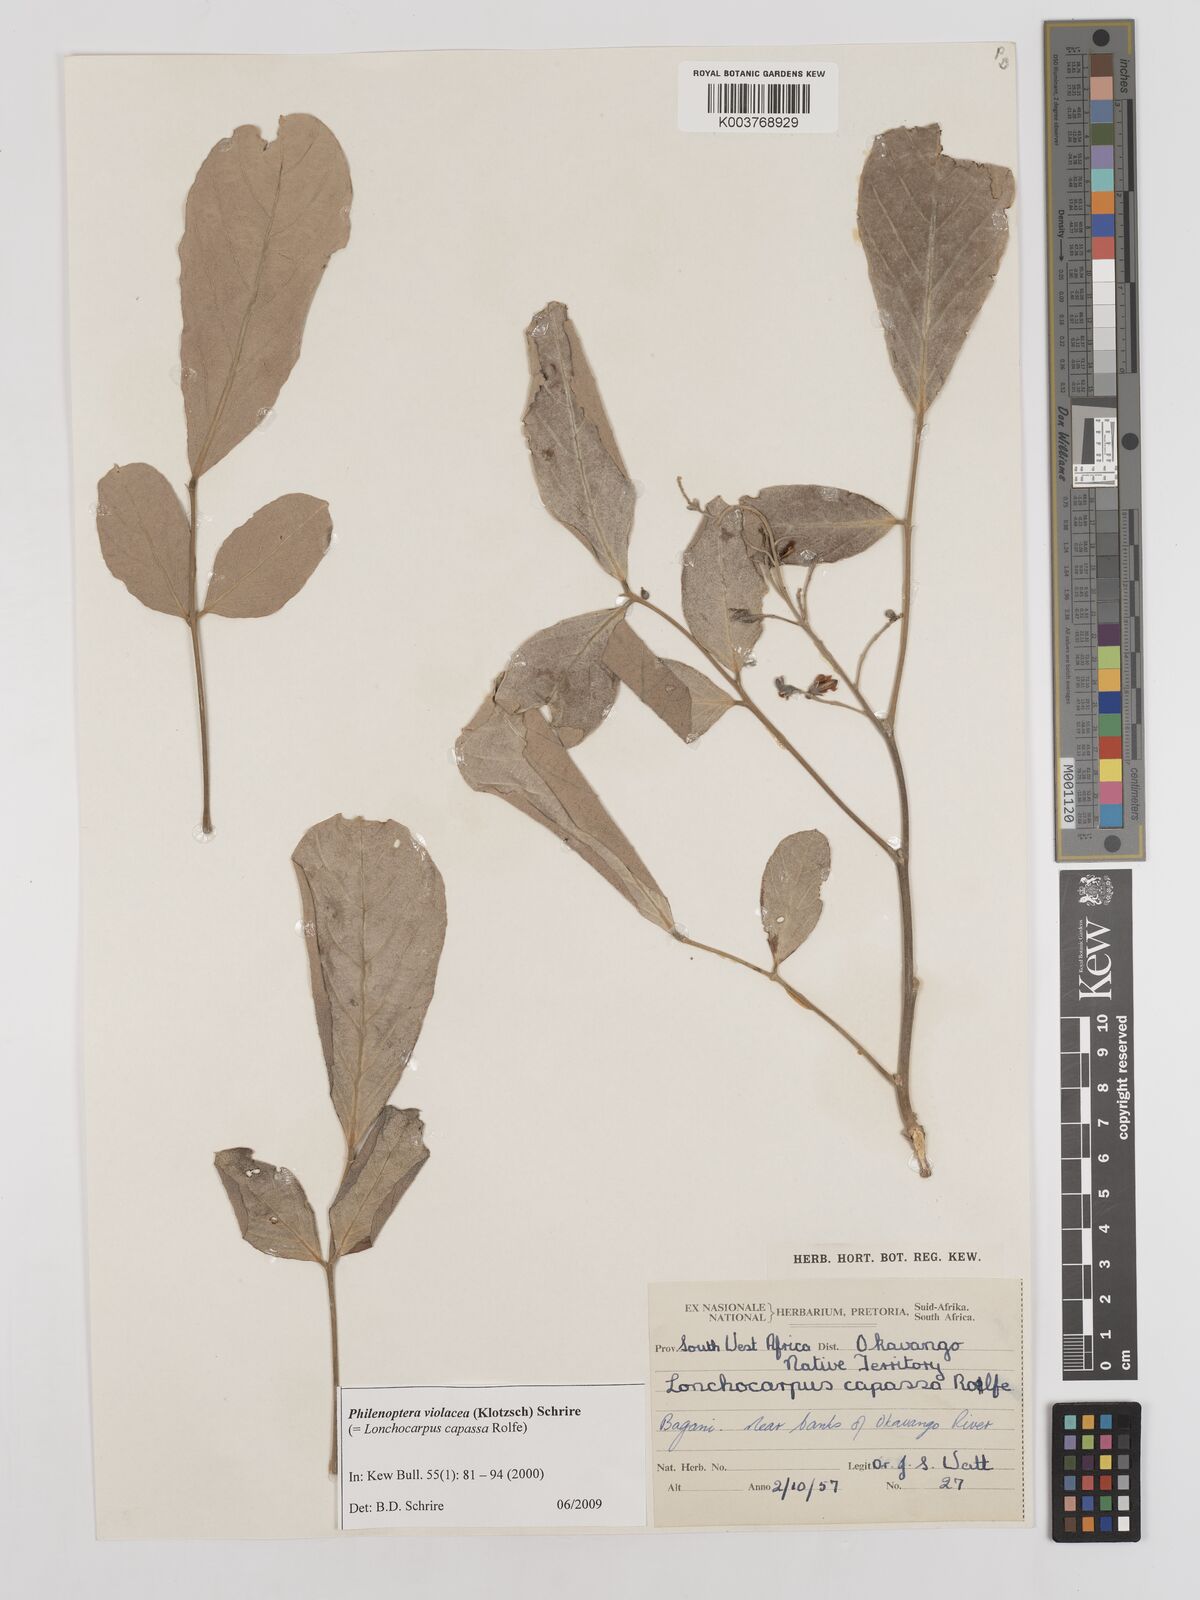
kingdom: Plantae
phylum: Tracheophyta
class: Magnoliopsida
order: Fabales
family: Fabaceae
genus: Philenoptera
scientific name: Philenoptera violacea
